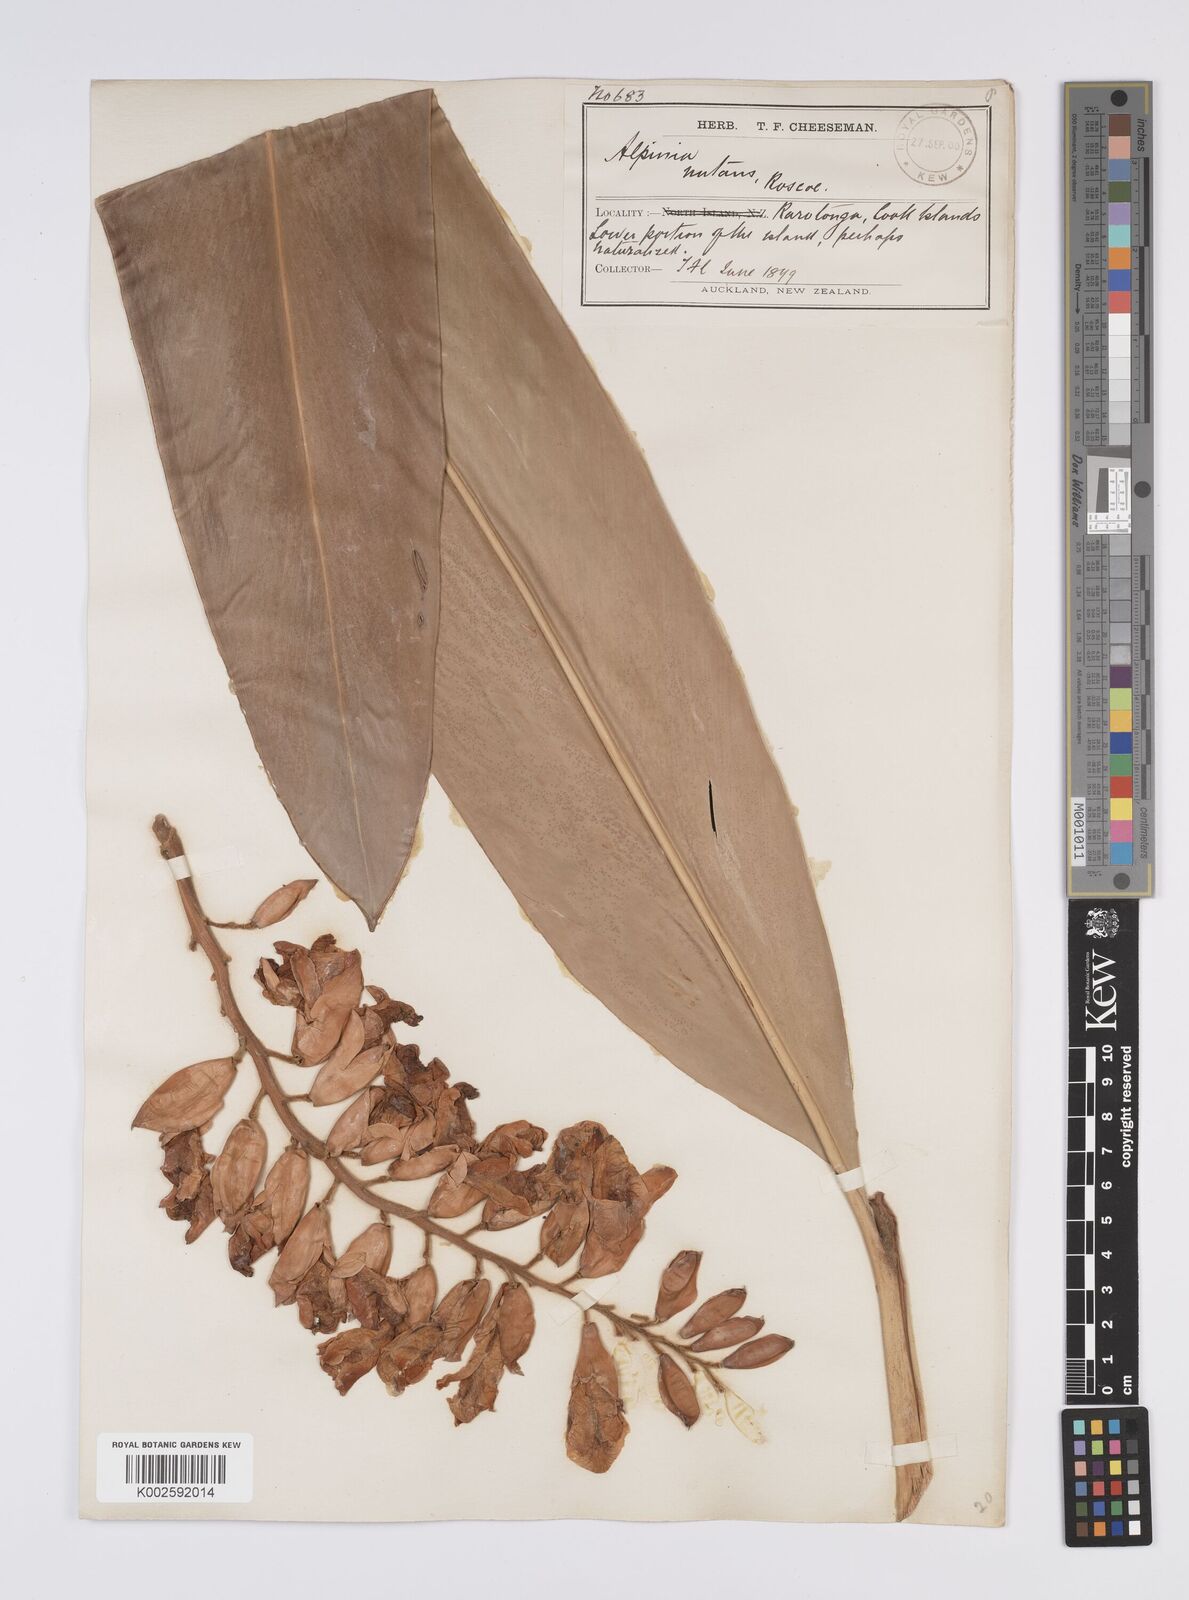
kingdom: Plantae
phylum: Tracheophyta
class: Liliopsida
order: Zingiberales
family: Zingiberaceae
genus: Alpinia
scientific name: Alpinia zerumbet
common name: Shellplant
